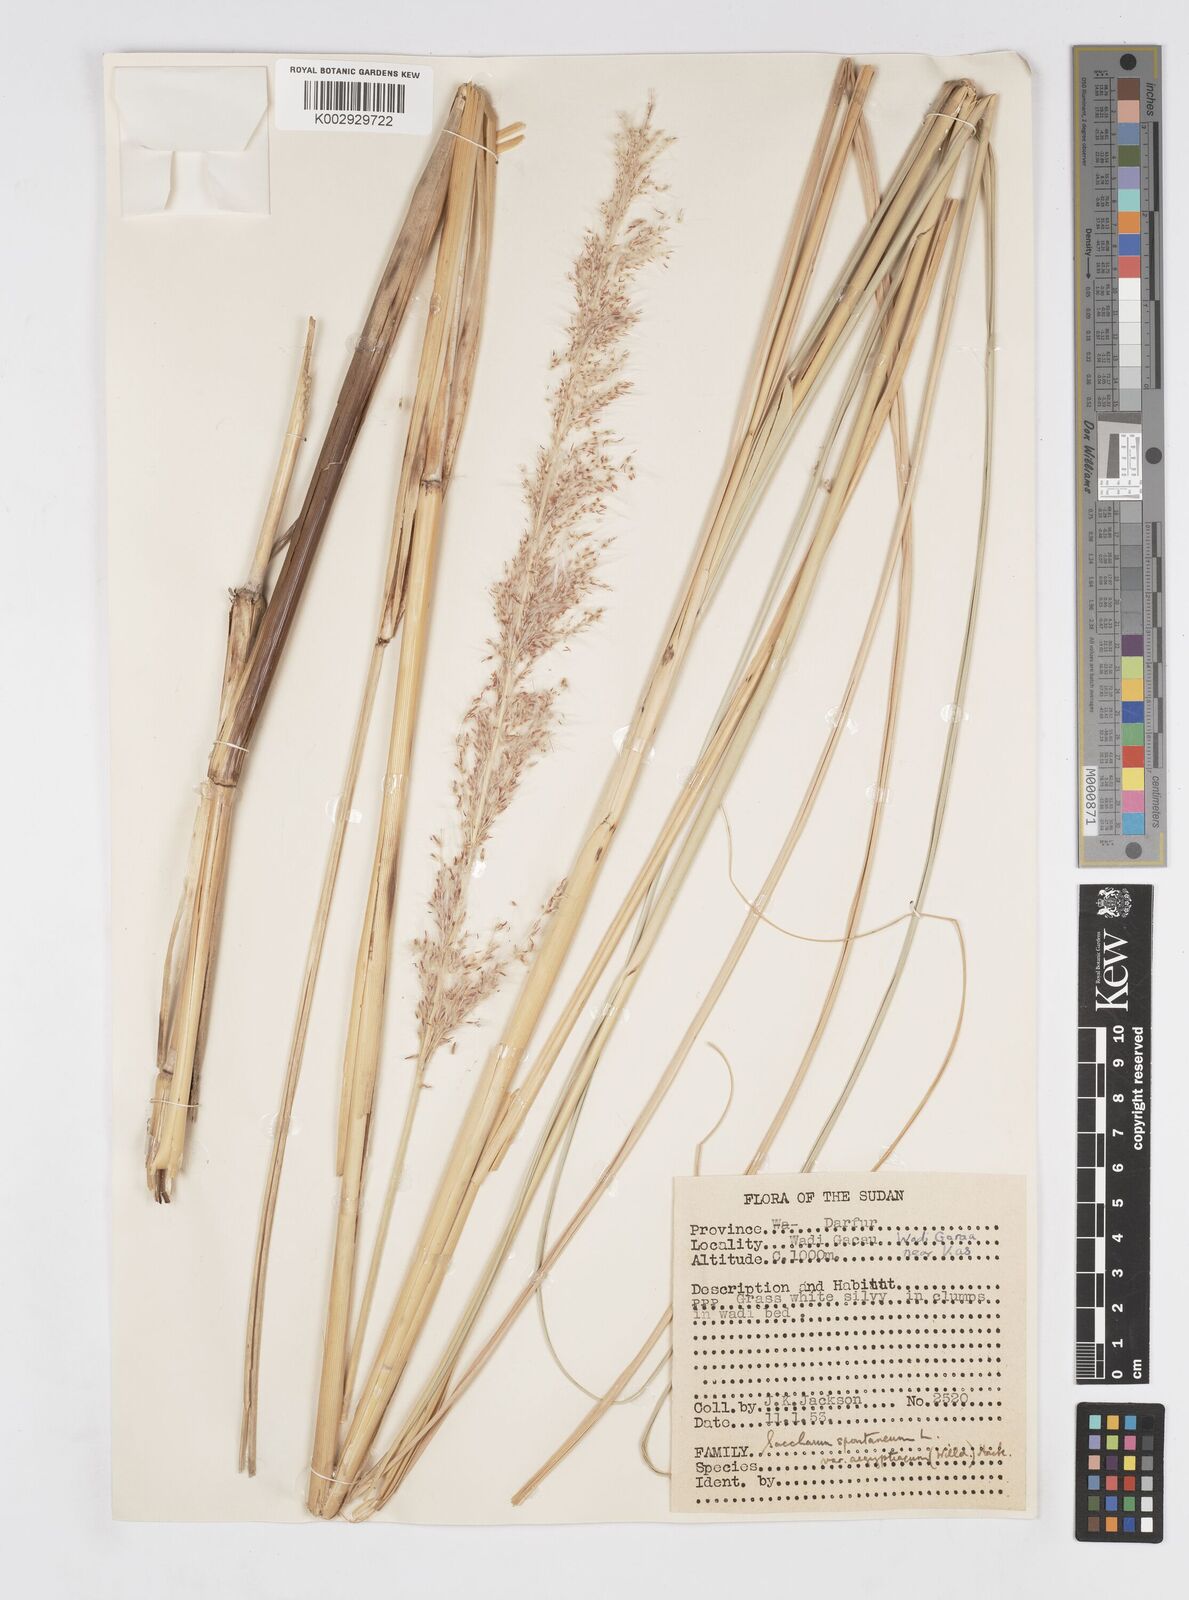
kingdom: Plantae
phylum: Tracheophyta
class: Liliopsida
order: Poales
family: Poaceae
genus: Saccharum
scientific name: Saccharum spontaneum
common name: Wild sugarcane
